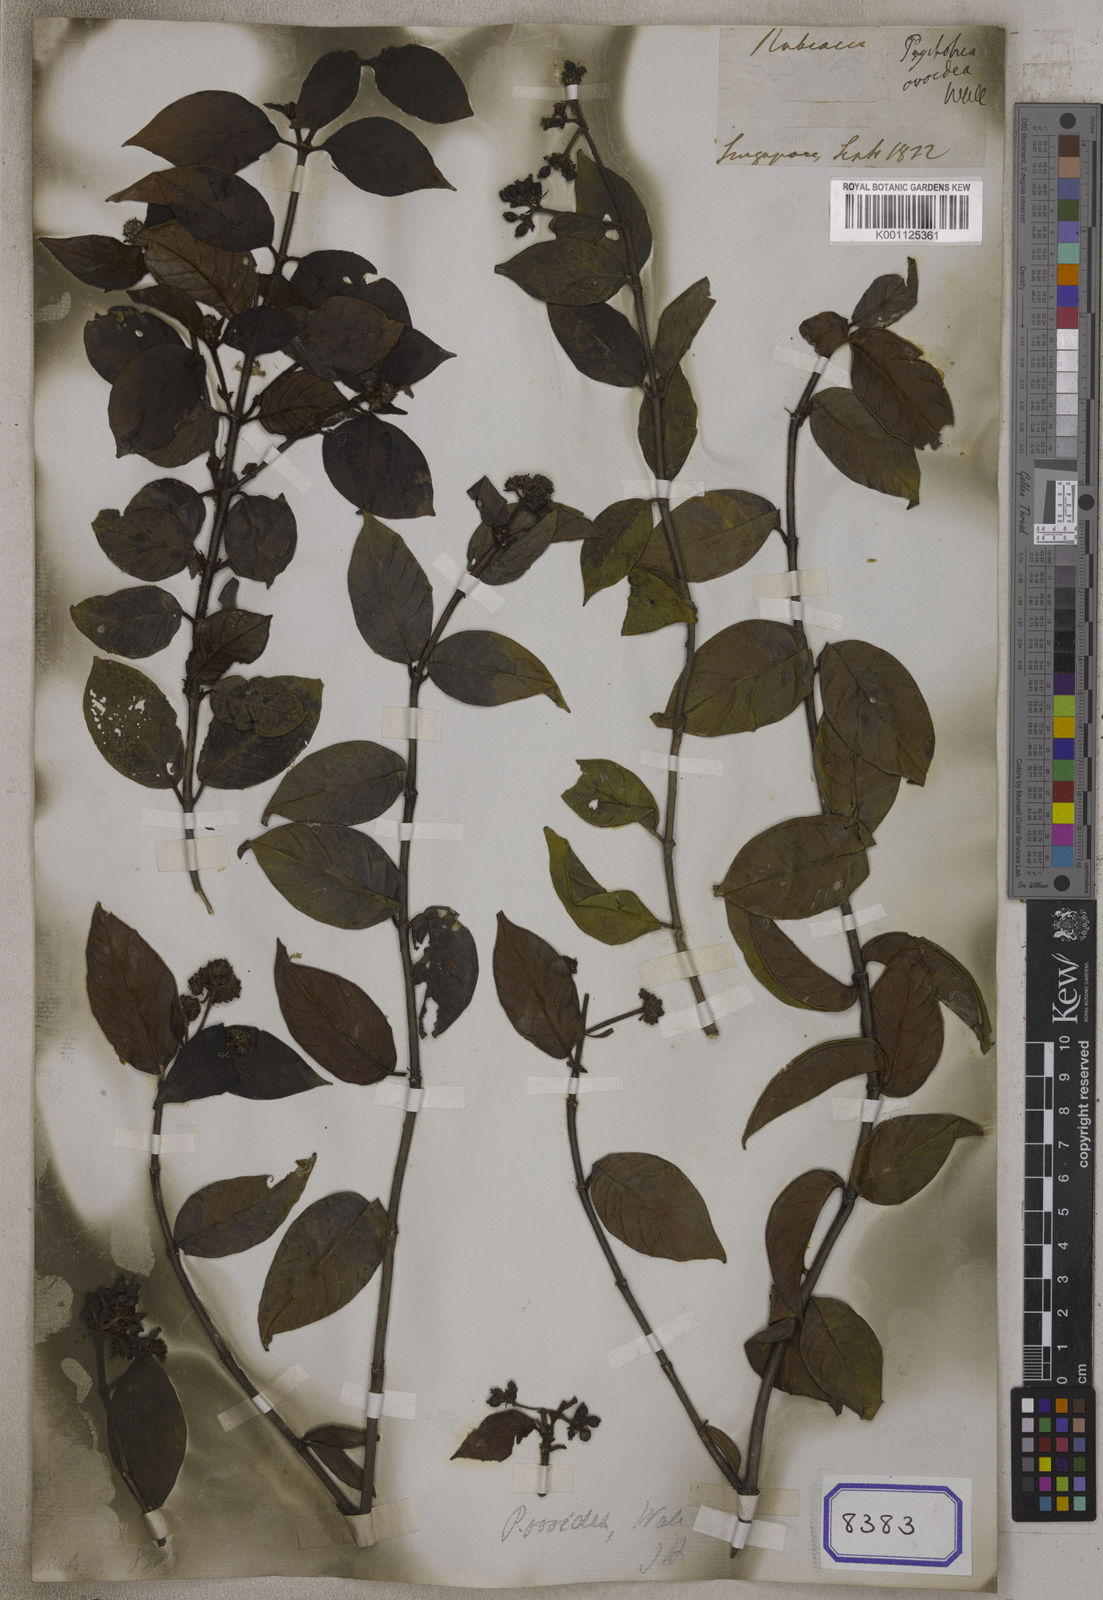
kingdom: Plantae
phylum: Tracheophyta
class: Magnoliopsida
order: Gentianales
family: Rubiaceae
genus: Psychotria
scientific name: Psychotria
